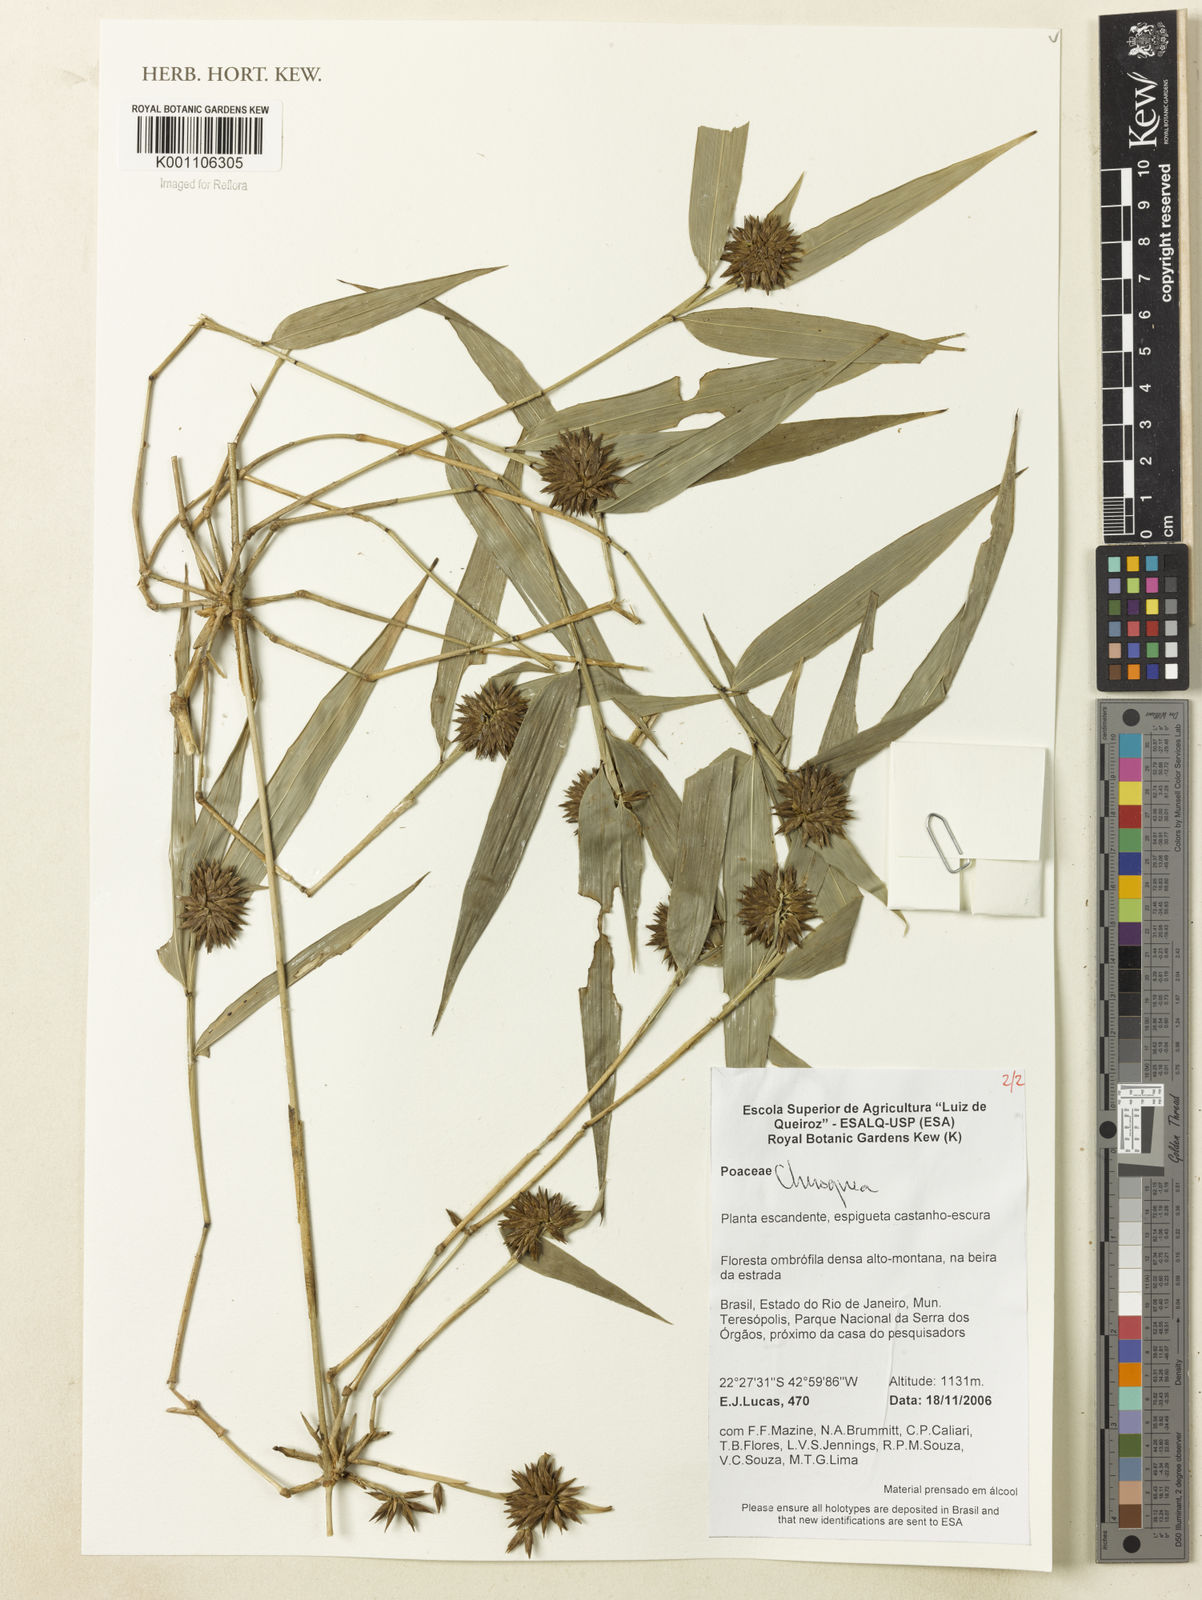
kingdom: Plantae
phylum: Tracheophyta
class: Liliopsida
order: Poales
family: Poaceae
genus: Chusquea
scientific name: Chusquea
